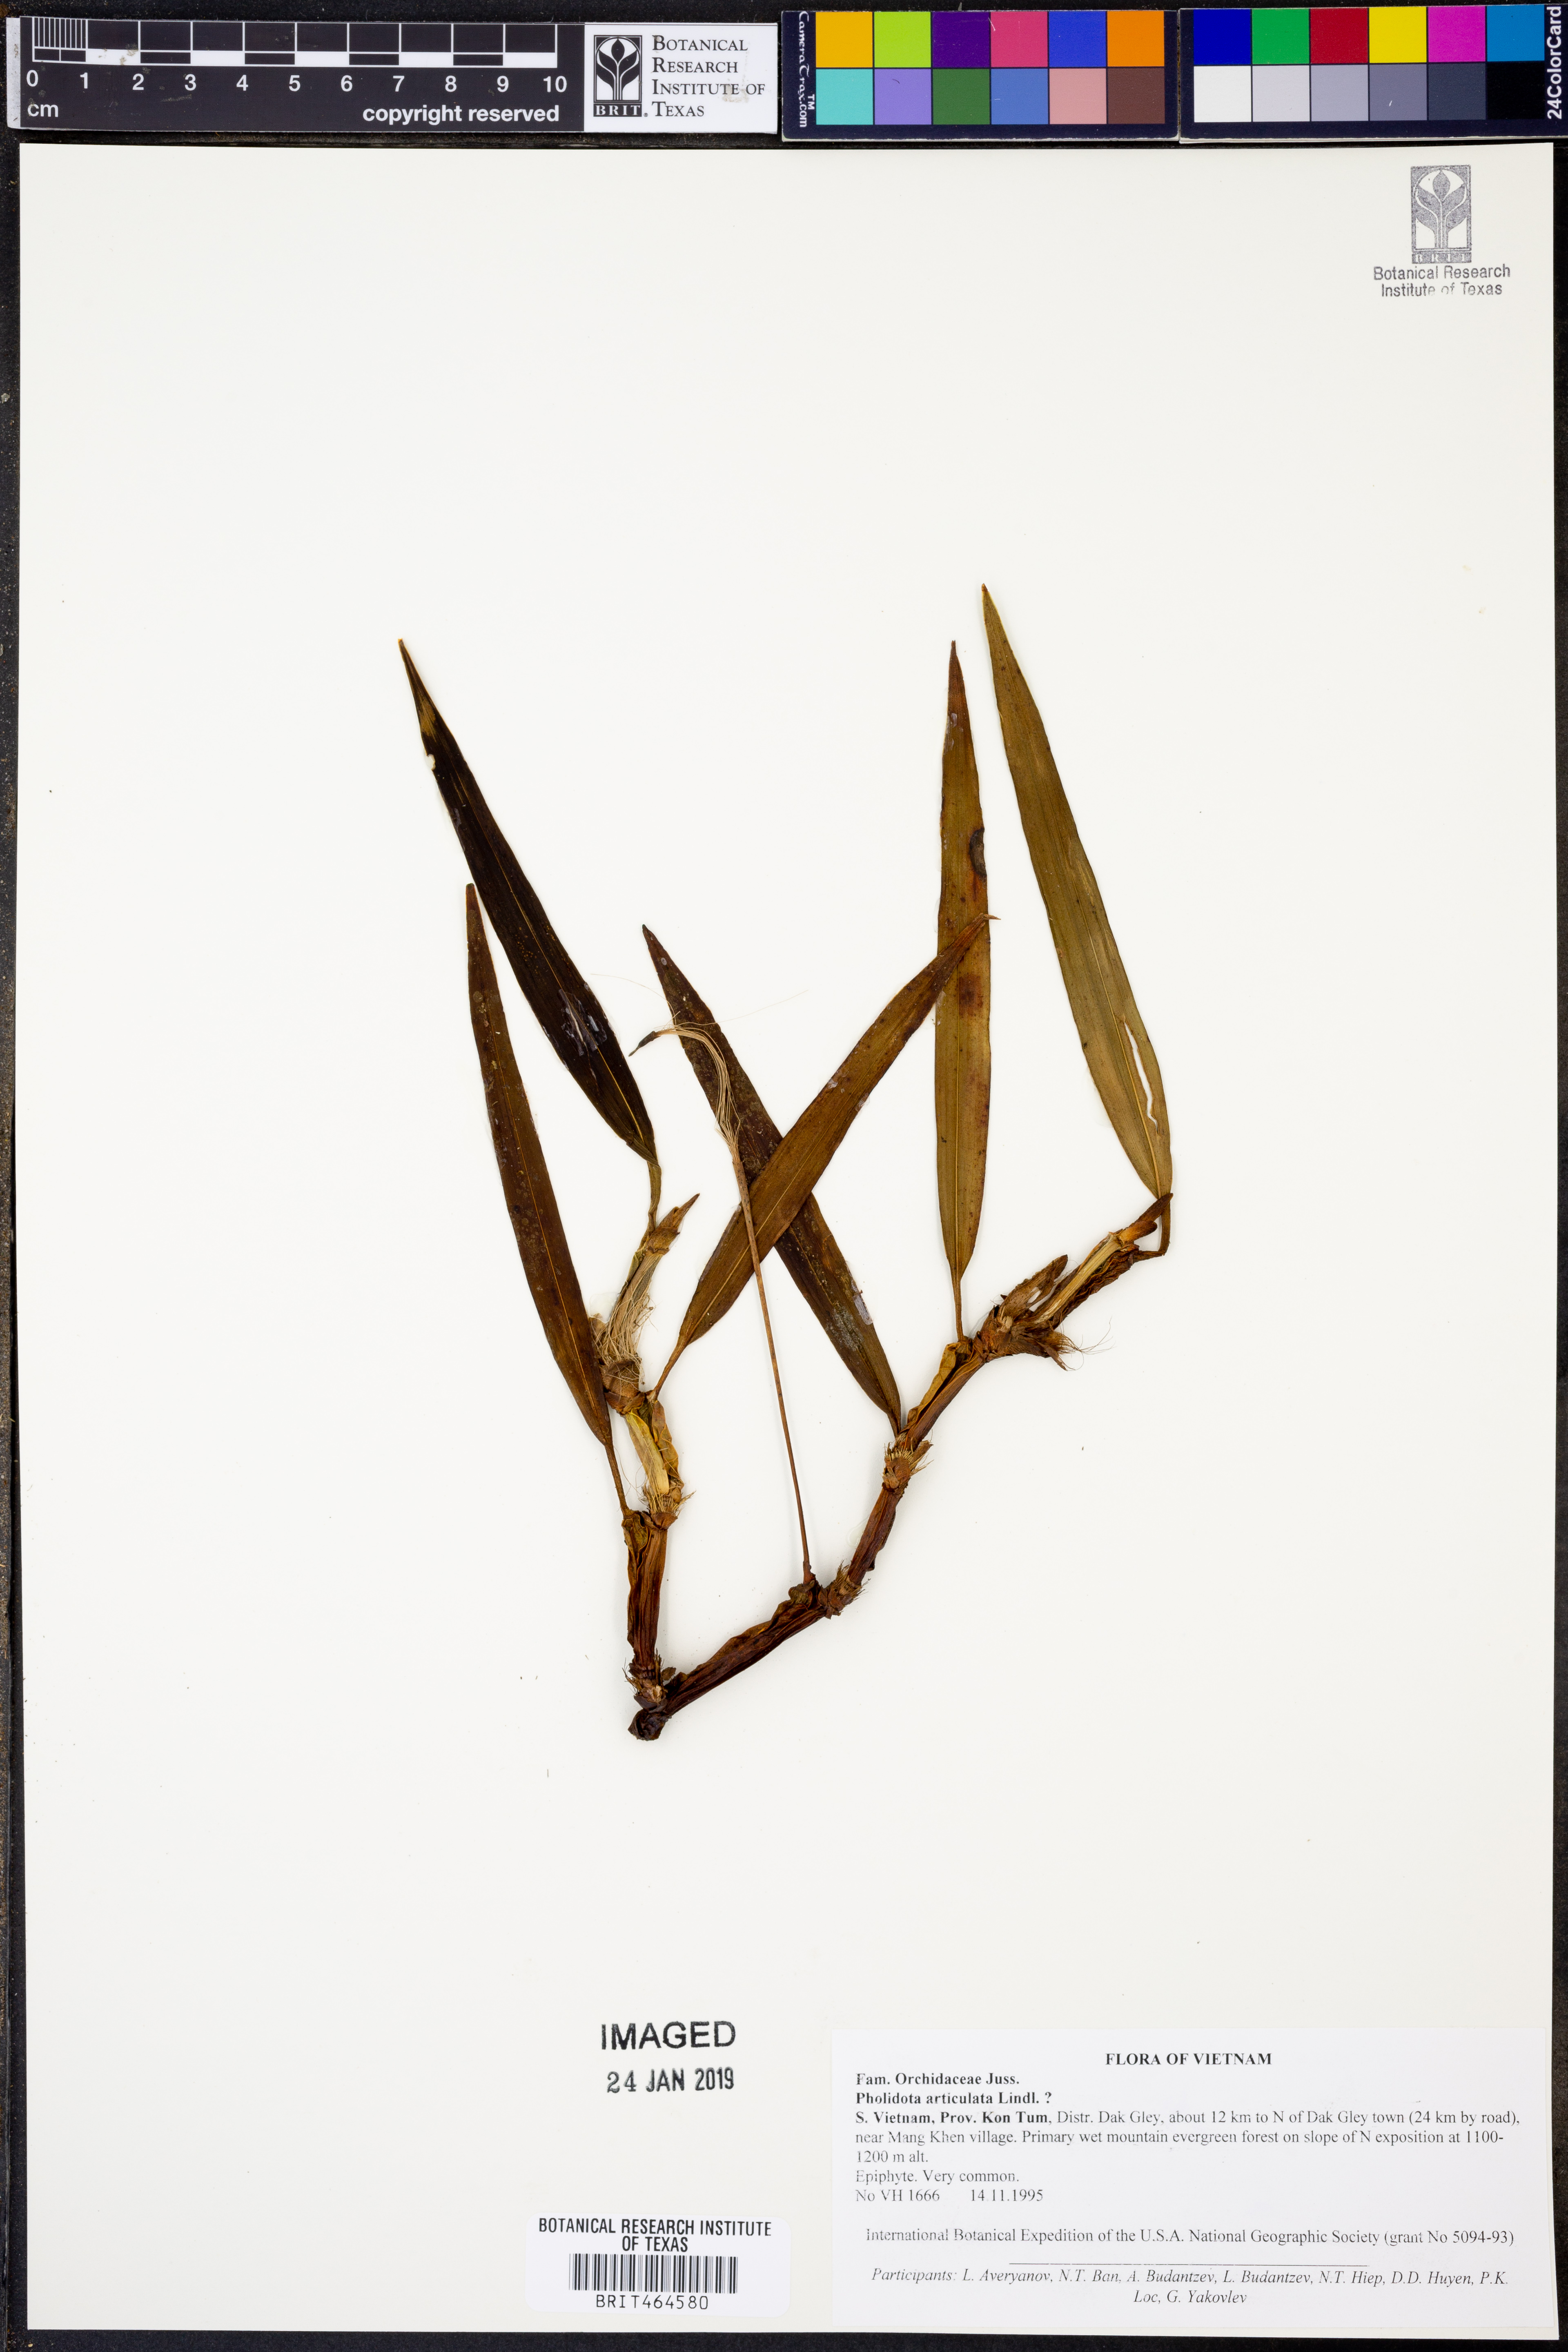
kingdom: Plantae
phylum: Tracheophyta
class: Liliopsida
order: Asparagales
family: Orchidaceae
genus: Coelogyne
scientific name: Coelogyne articulata
